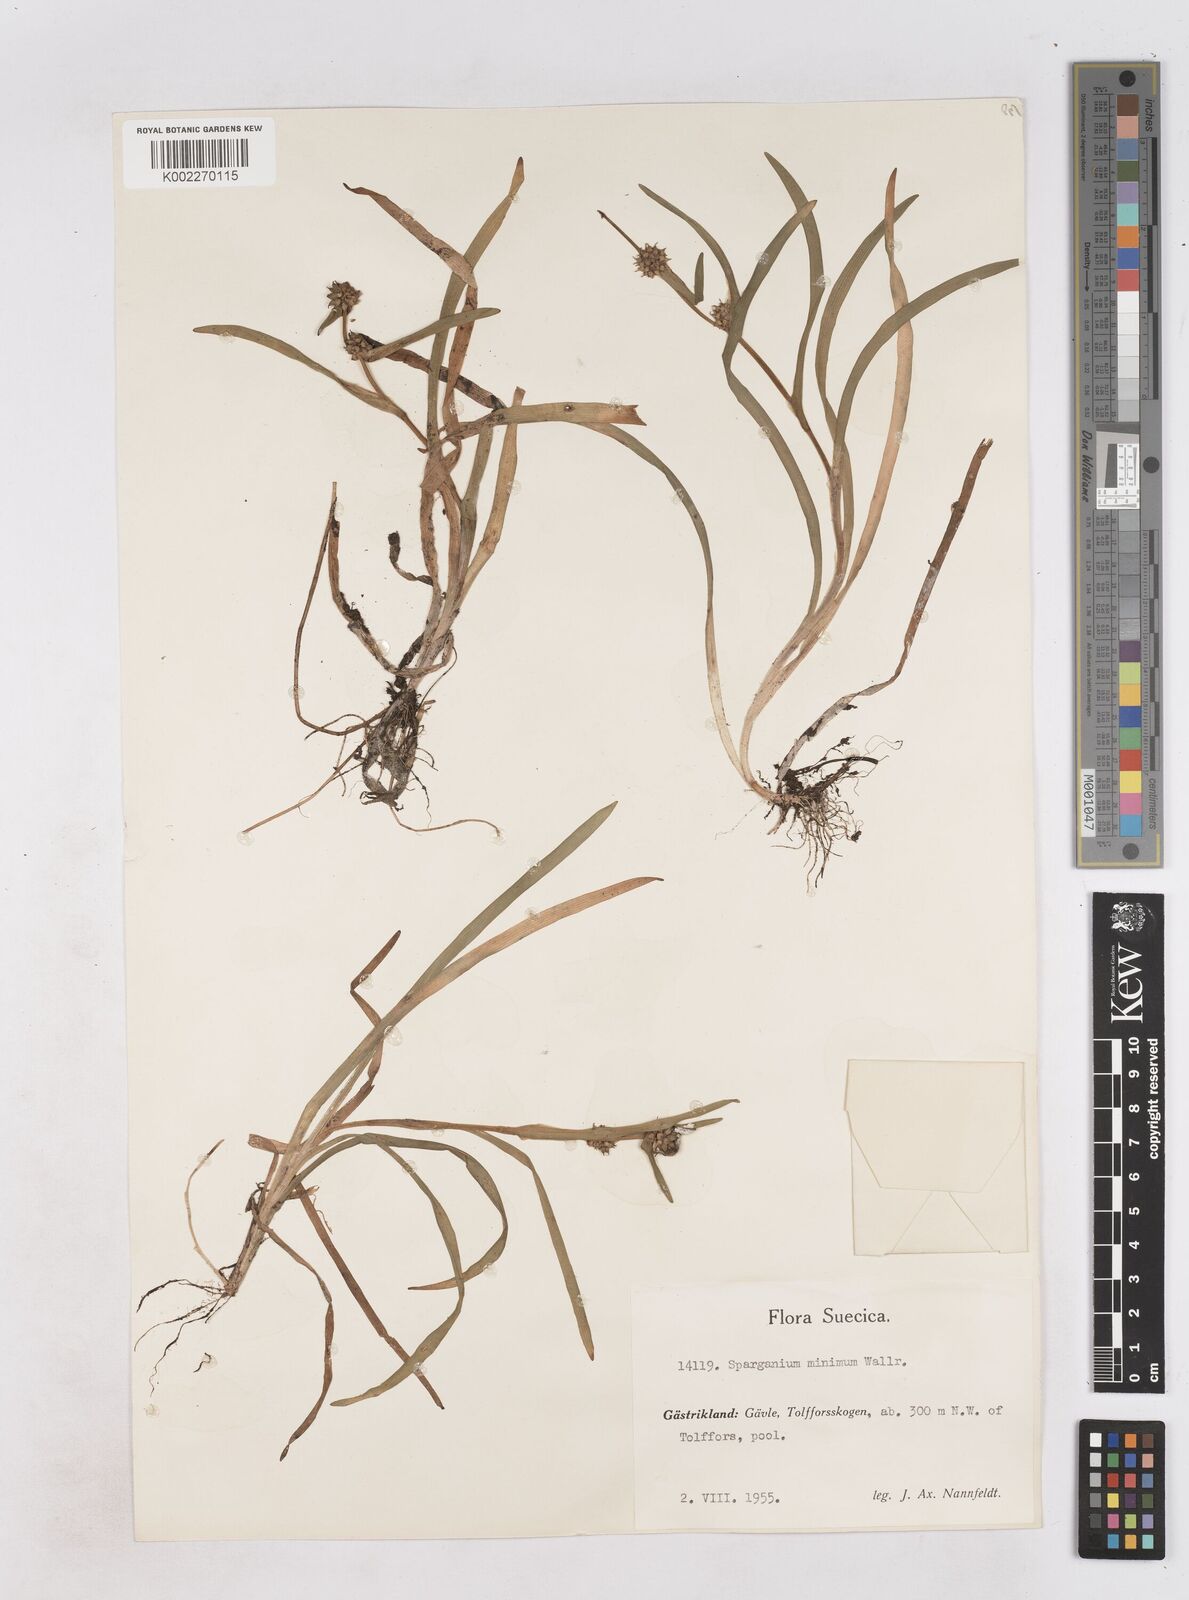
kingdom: Plantae
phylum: Tracheophyta
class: Liliopsida
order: Poales
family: Typhaceae
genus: Sparganium
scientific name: Sparganium natans
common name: Least bur-reed
